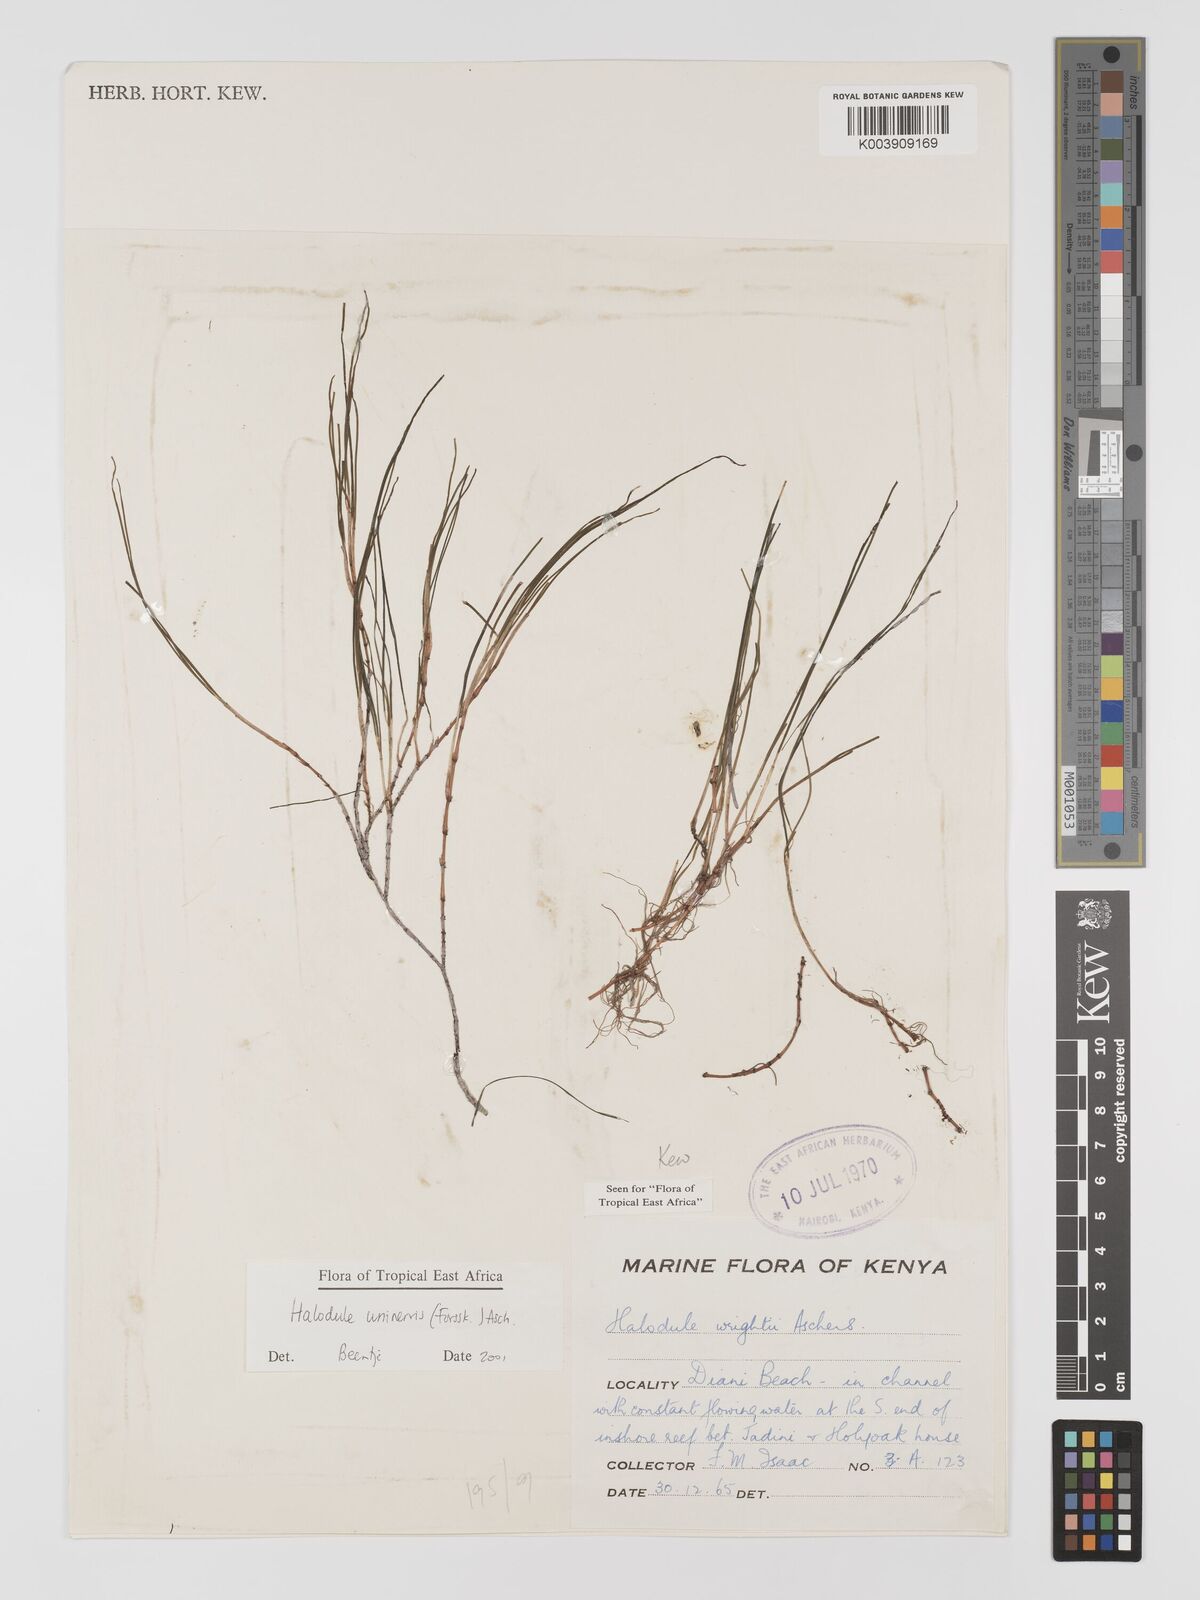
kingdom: Plantae
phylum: Tracheophyta
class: Liliopsida
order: Alismatales
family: Cymodoceaceae
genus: Halodule
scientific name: Halodule uninervis
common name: Narrowleaf seagrass
